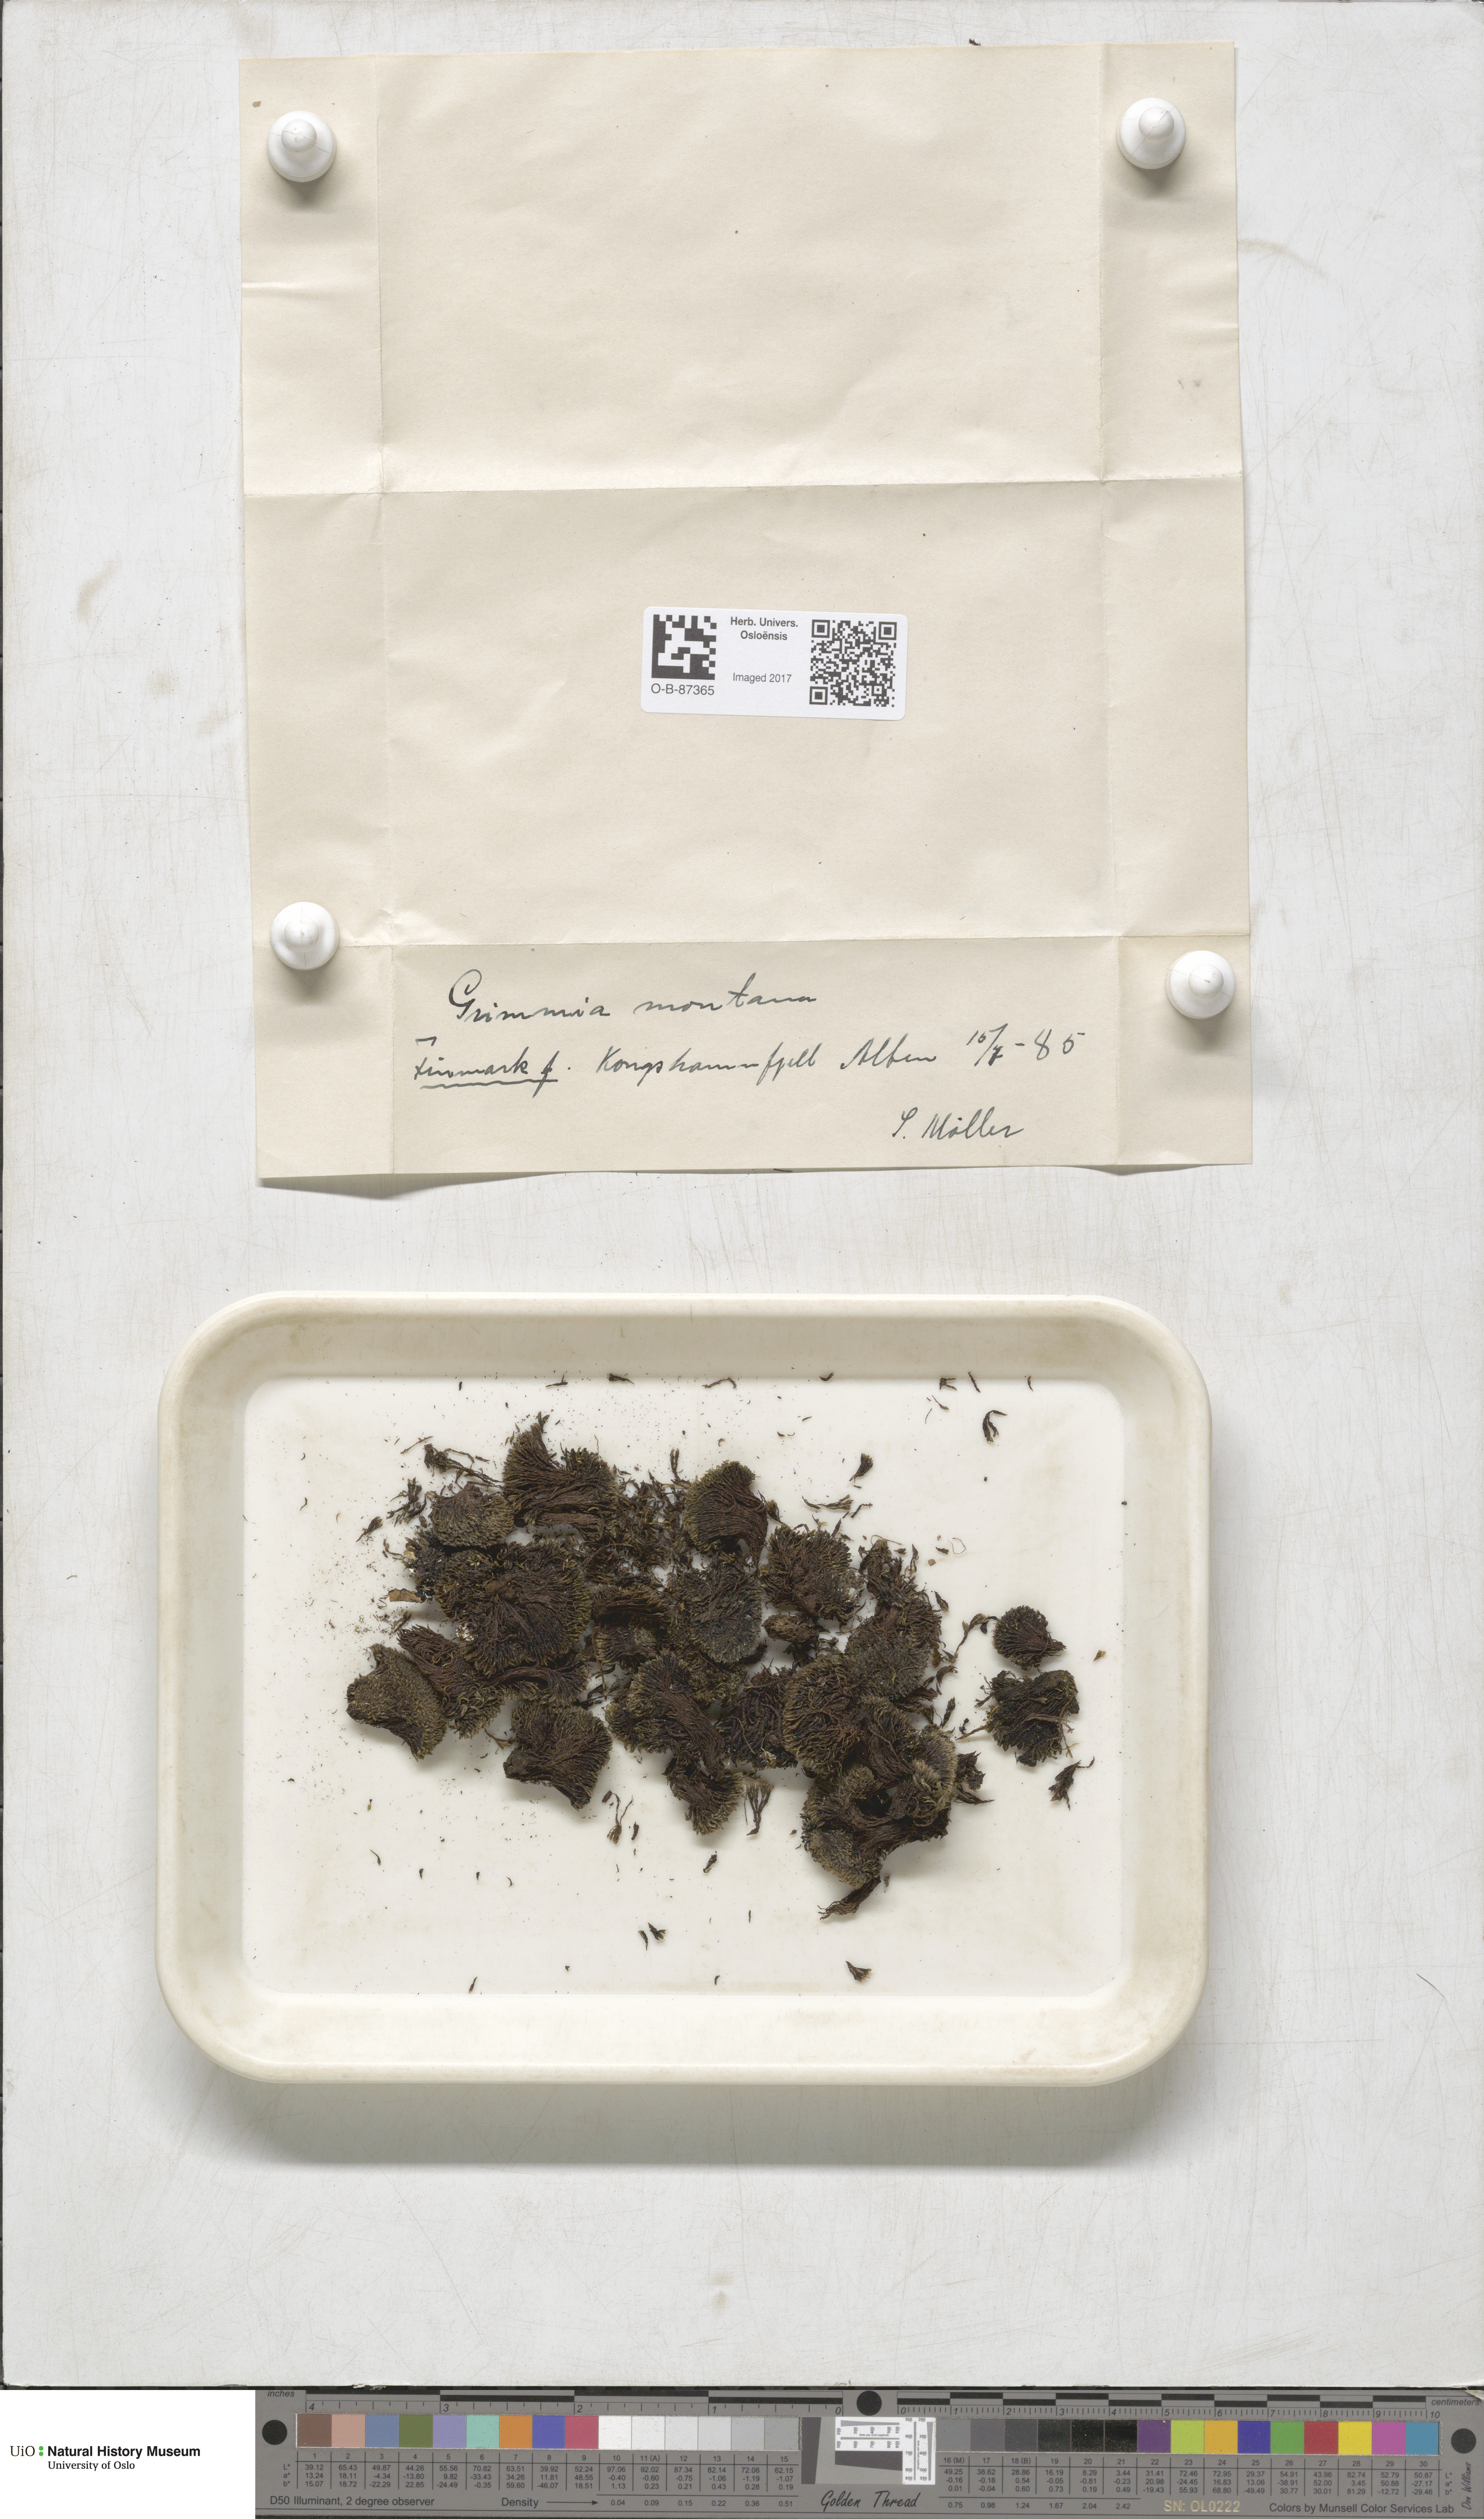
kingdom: Plantae
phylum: Bryophyta
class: Bryopsida
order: Grimmiales
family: Grimmiaceae
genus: Grimmia
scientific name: Grimmia montana
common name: Sun grimmia
